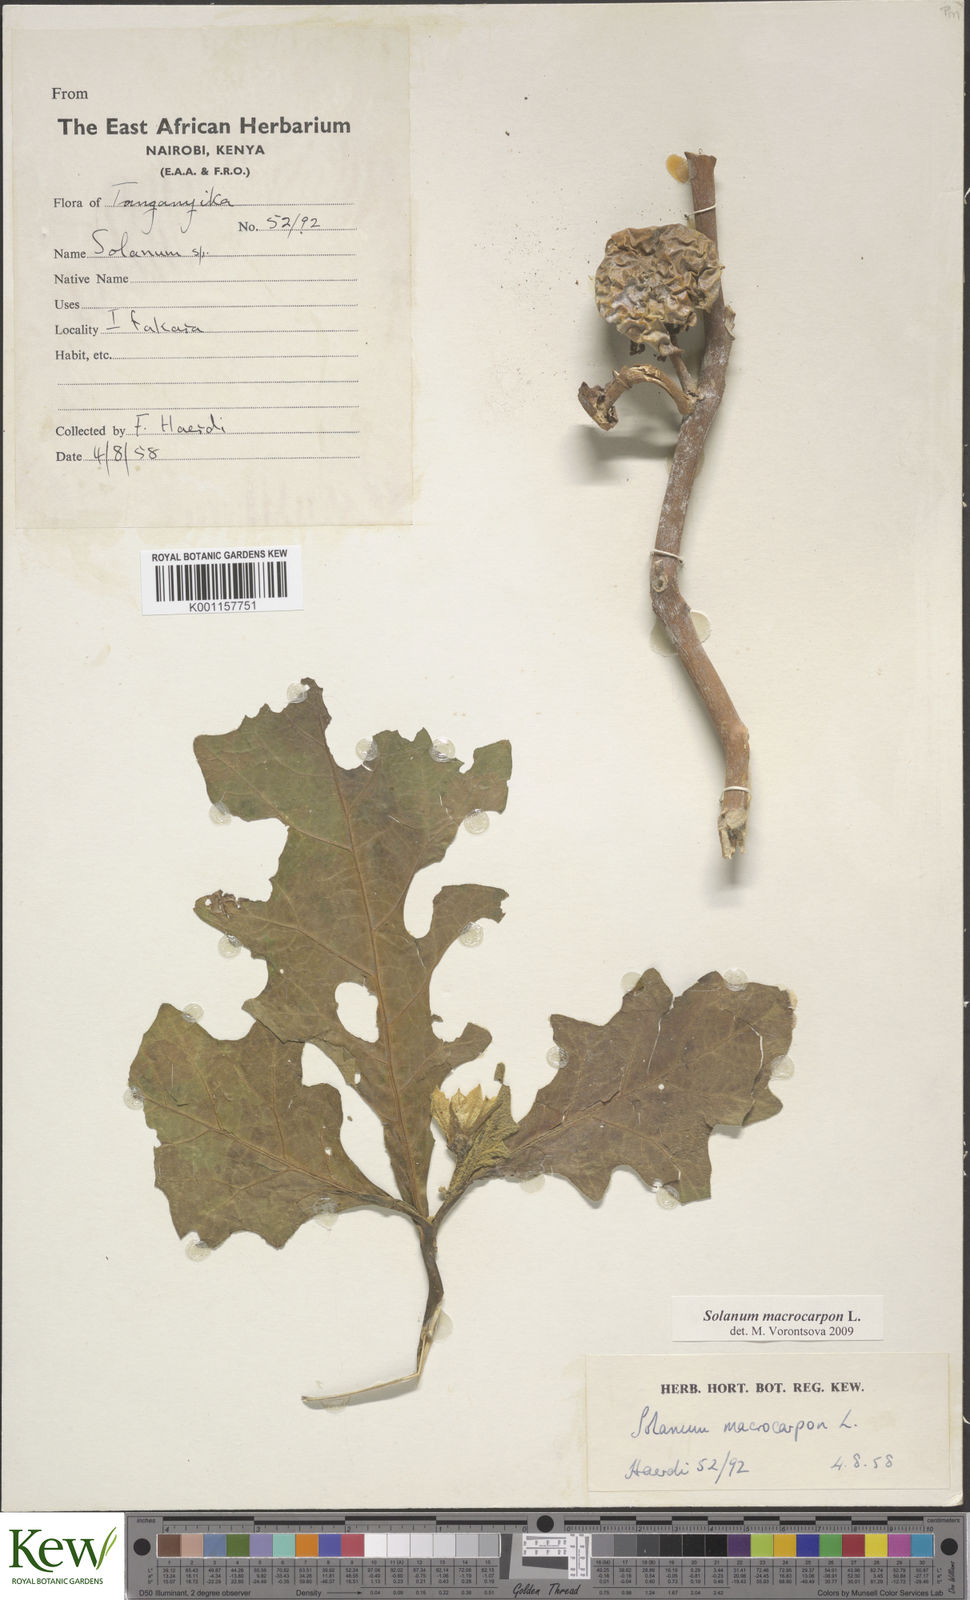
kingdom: Plantae
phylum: Tracheophyta
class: Magnoliopsida
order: Solanales
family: Solanaceae
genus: Solanum
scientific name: Solanum macrocarpon
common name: African eggplant
